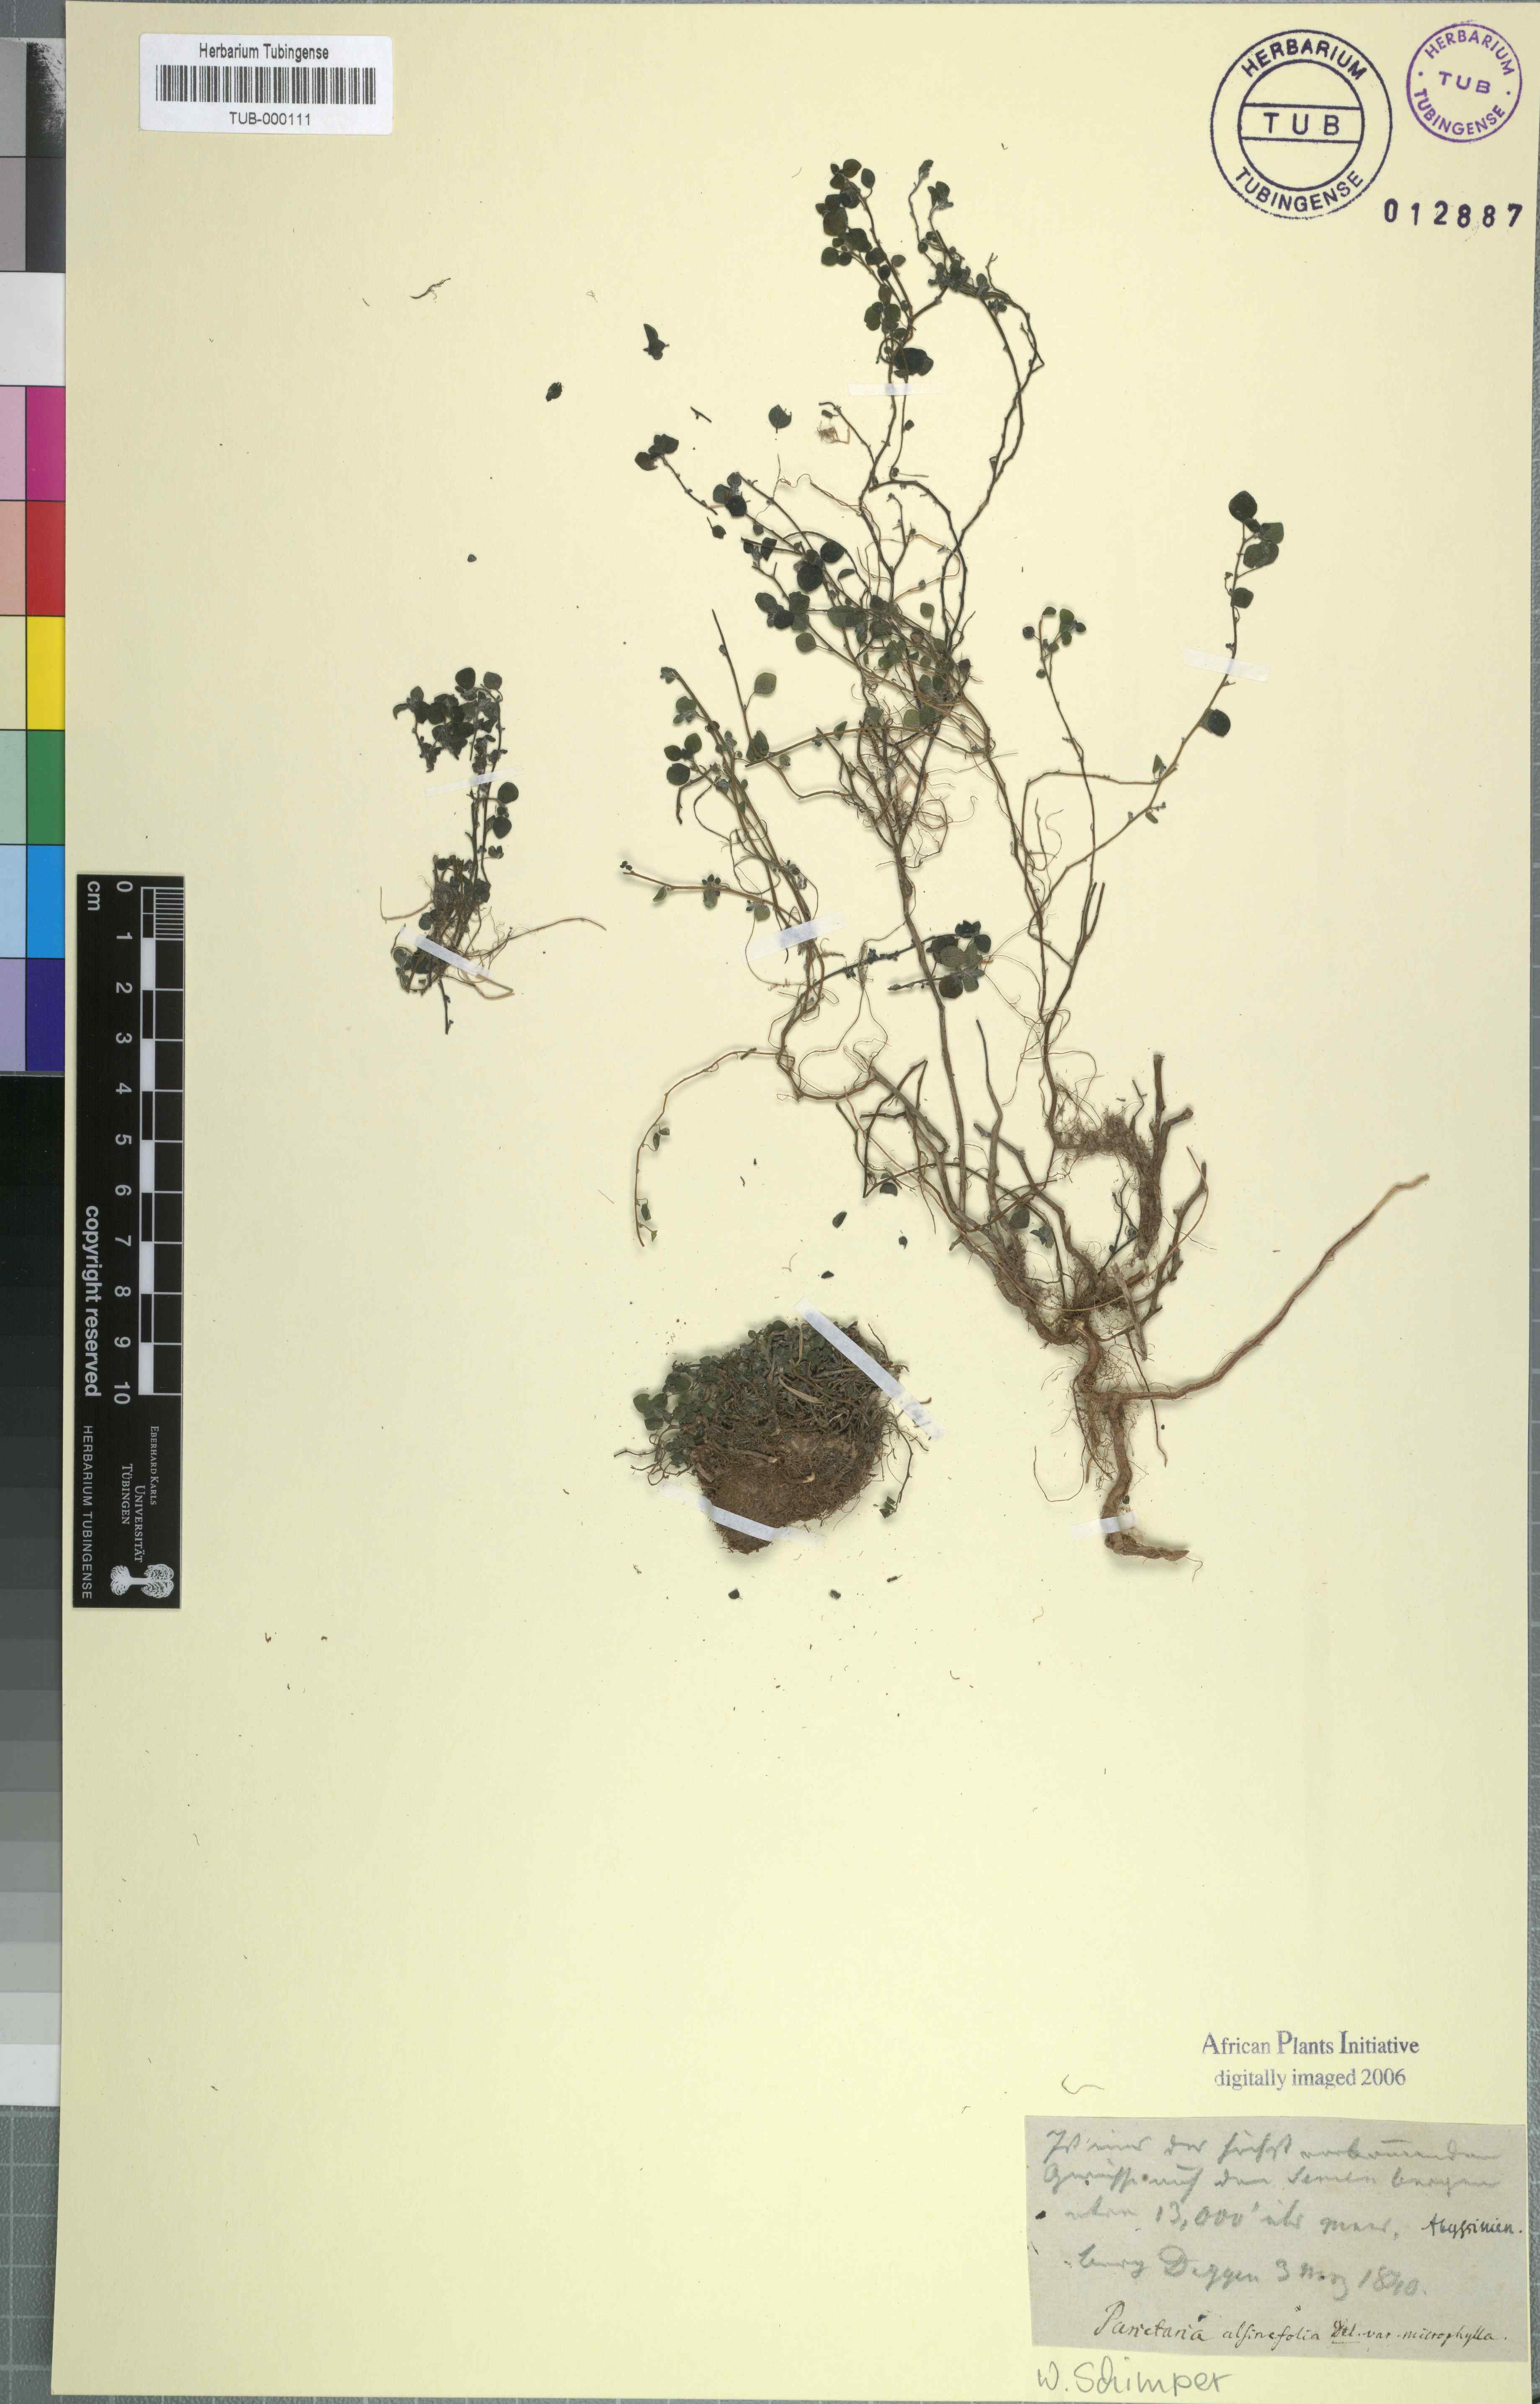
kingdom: Plantae
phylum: Tracheophyta
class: Magnoliopsida
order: Rosales
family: Urticaceae
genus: Parietaria
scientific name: Parietaria alsinefolia
